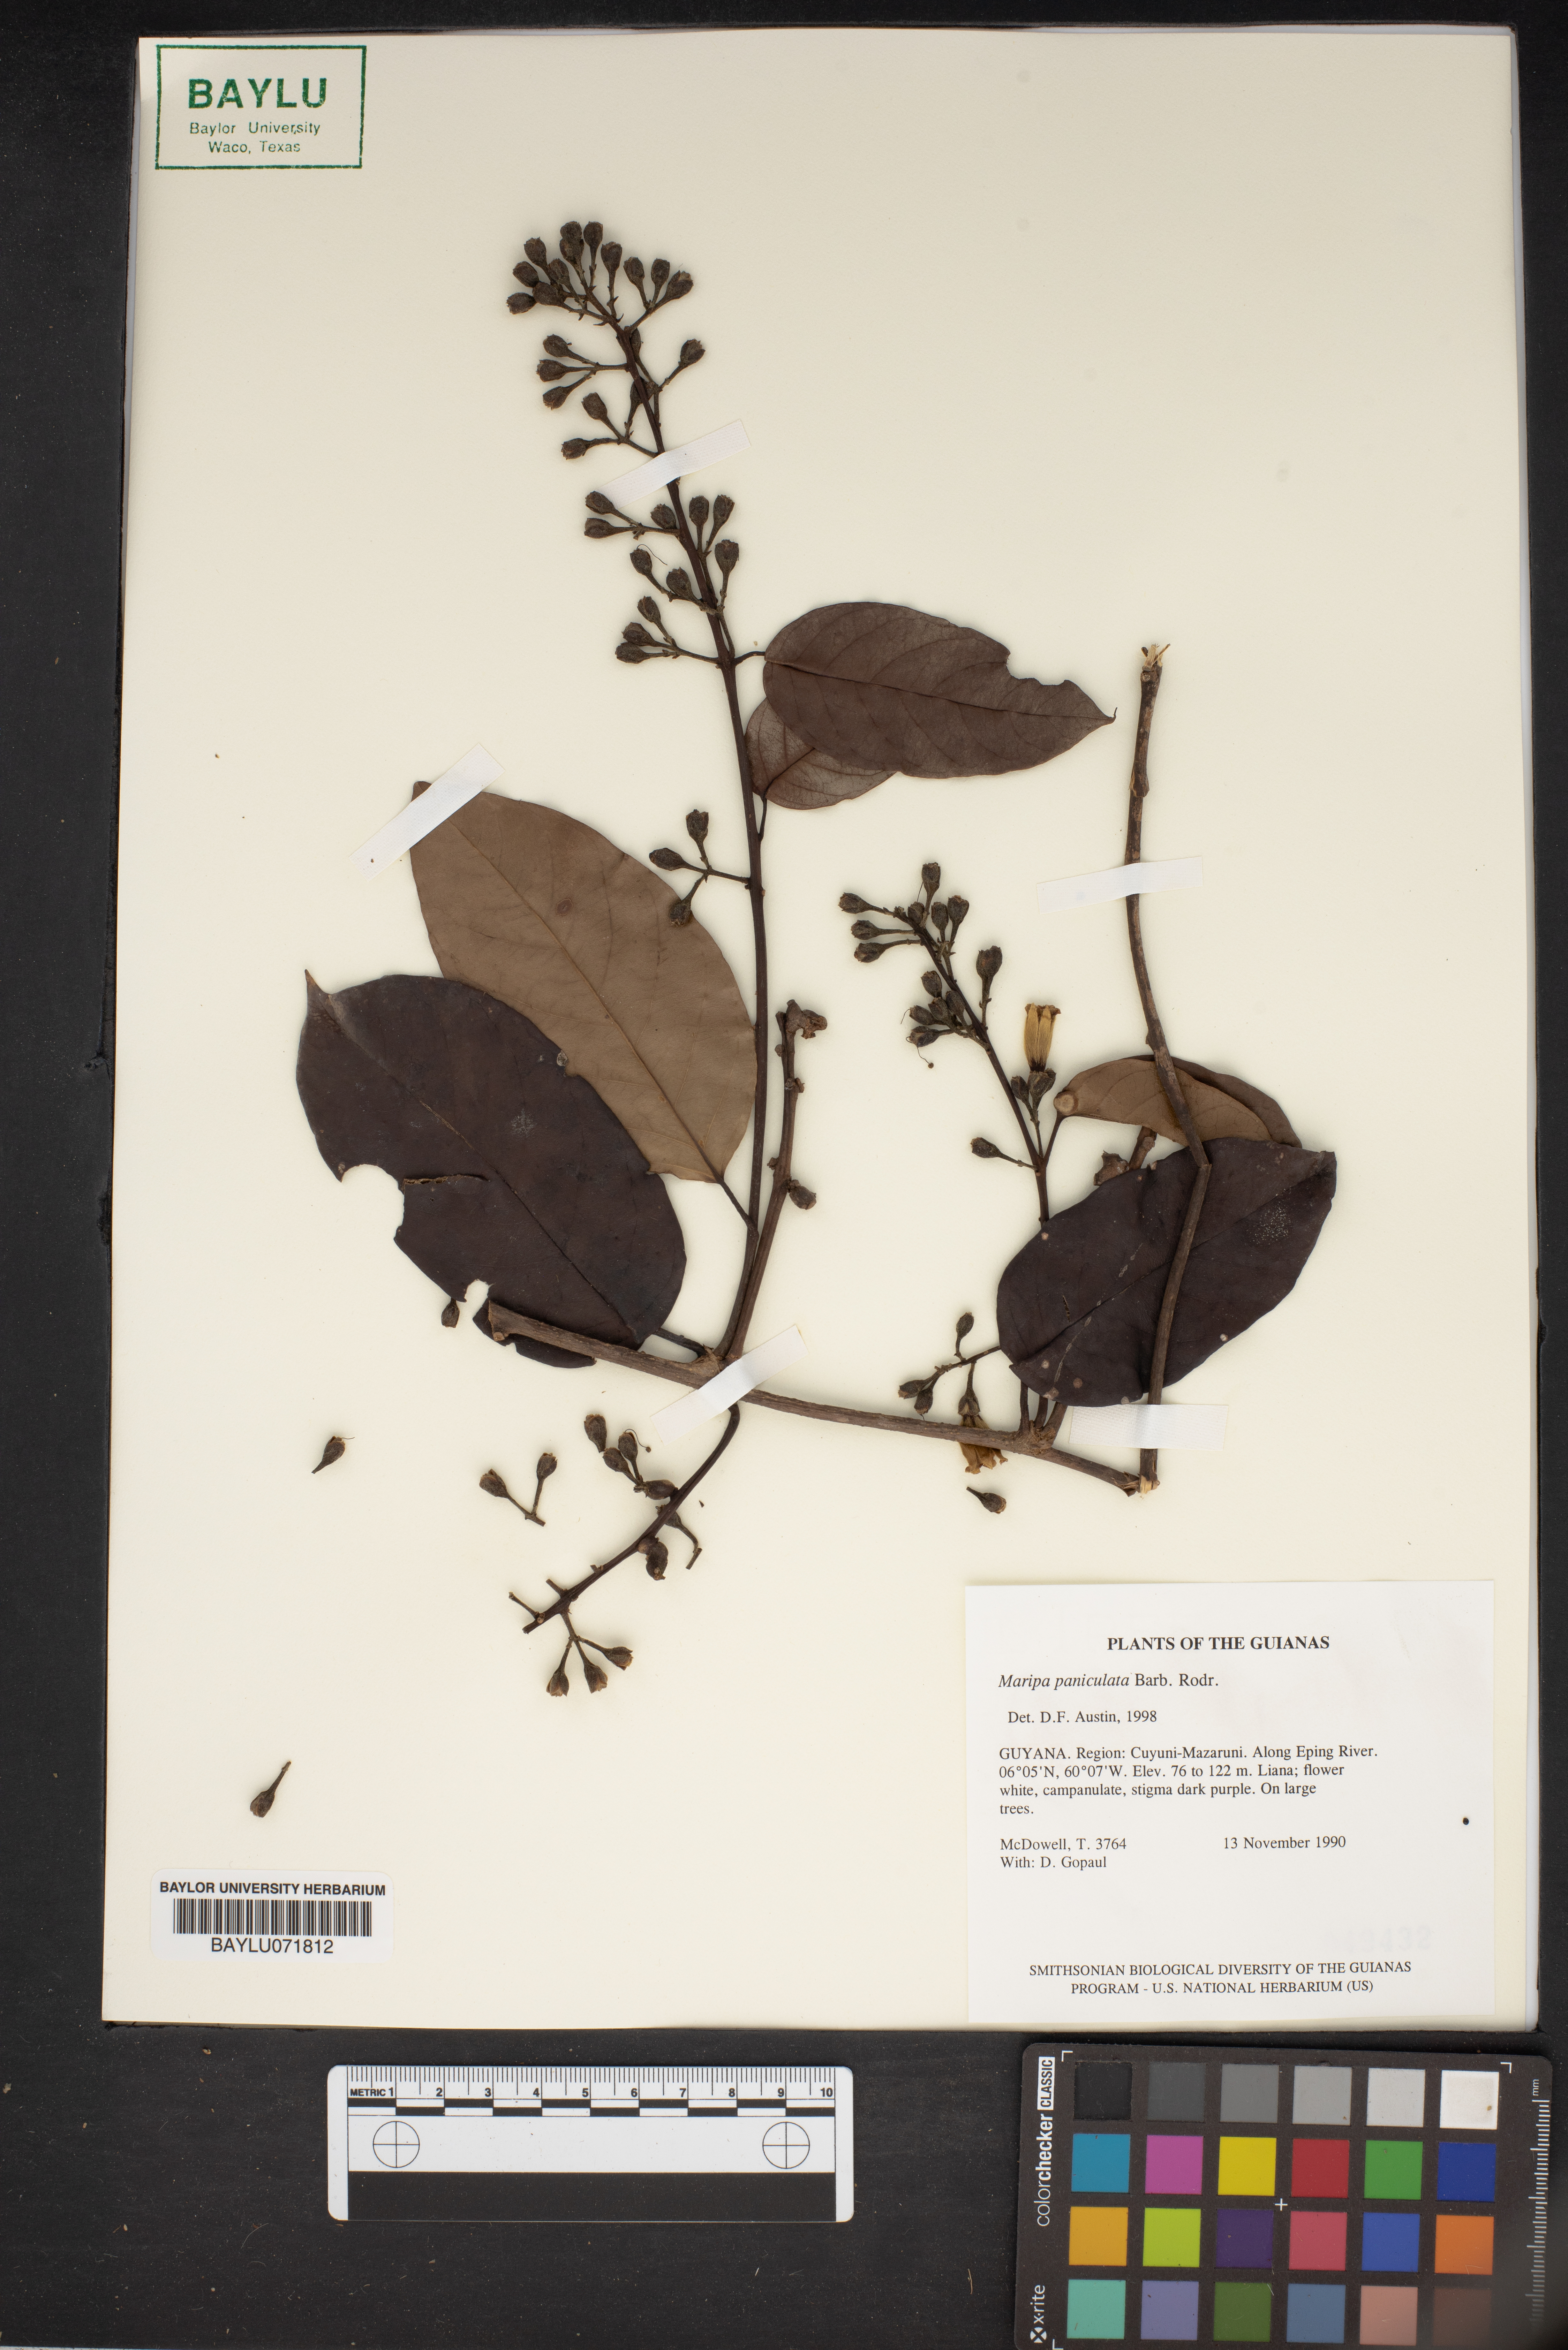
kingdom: Plantae
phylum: Tracheophyta
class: Magnoliopsida
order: Solanales
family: Convolvulaceae
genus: Maripa
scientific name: Maripa paniculata
